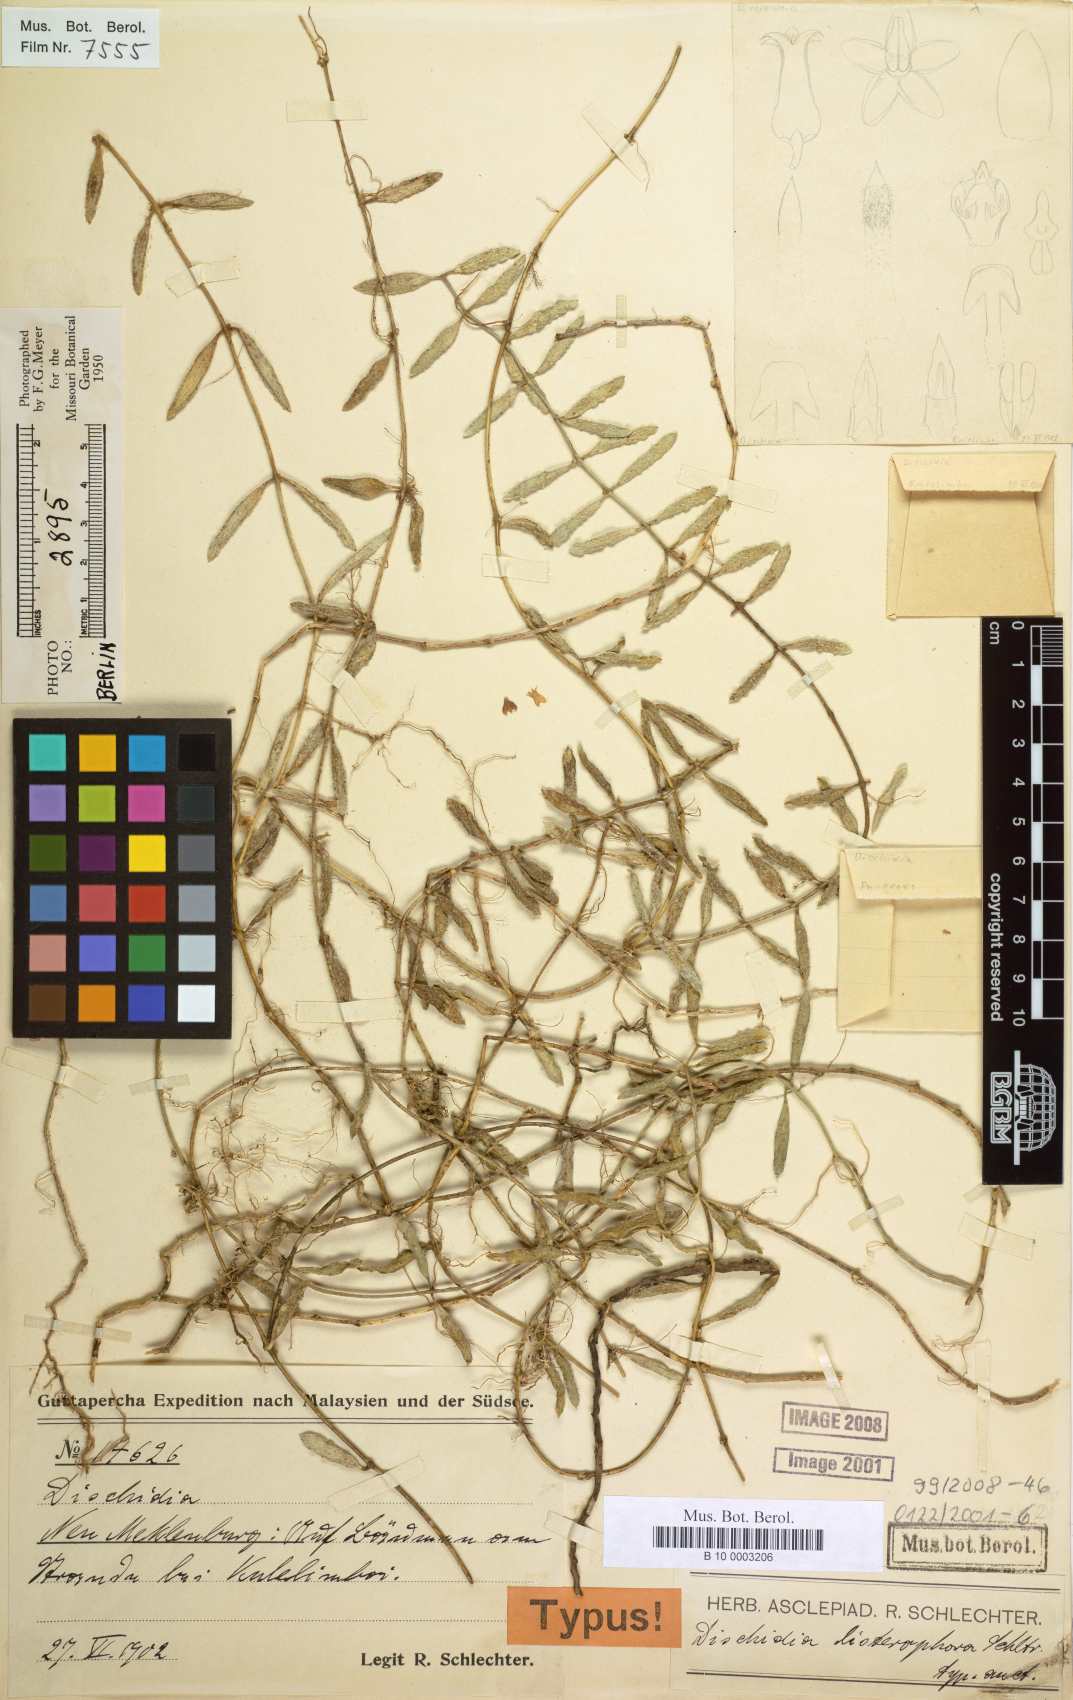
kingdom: Plantae
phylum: Tracheophyta
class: Magnoliopsida
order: Gentianales
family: Apocynaceae
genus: Dischidia
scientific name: Dischidia listerophora
